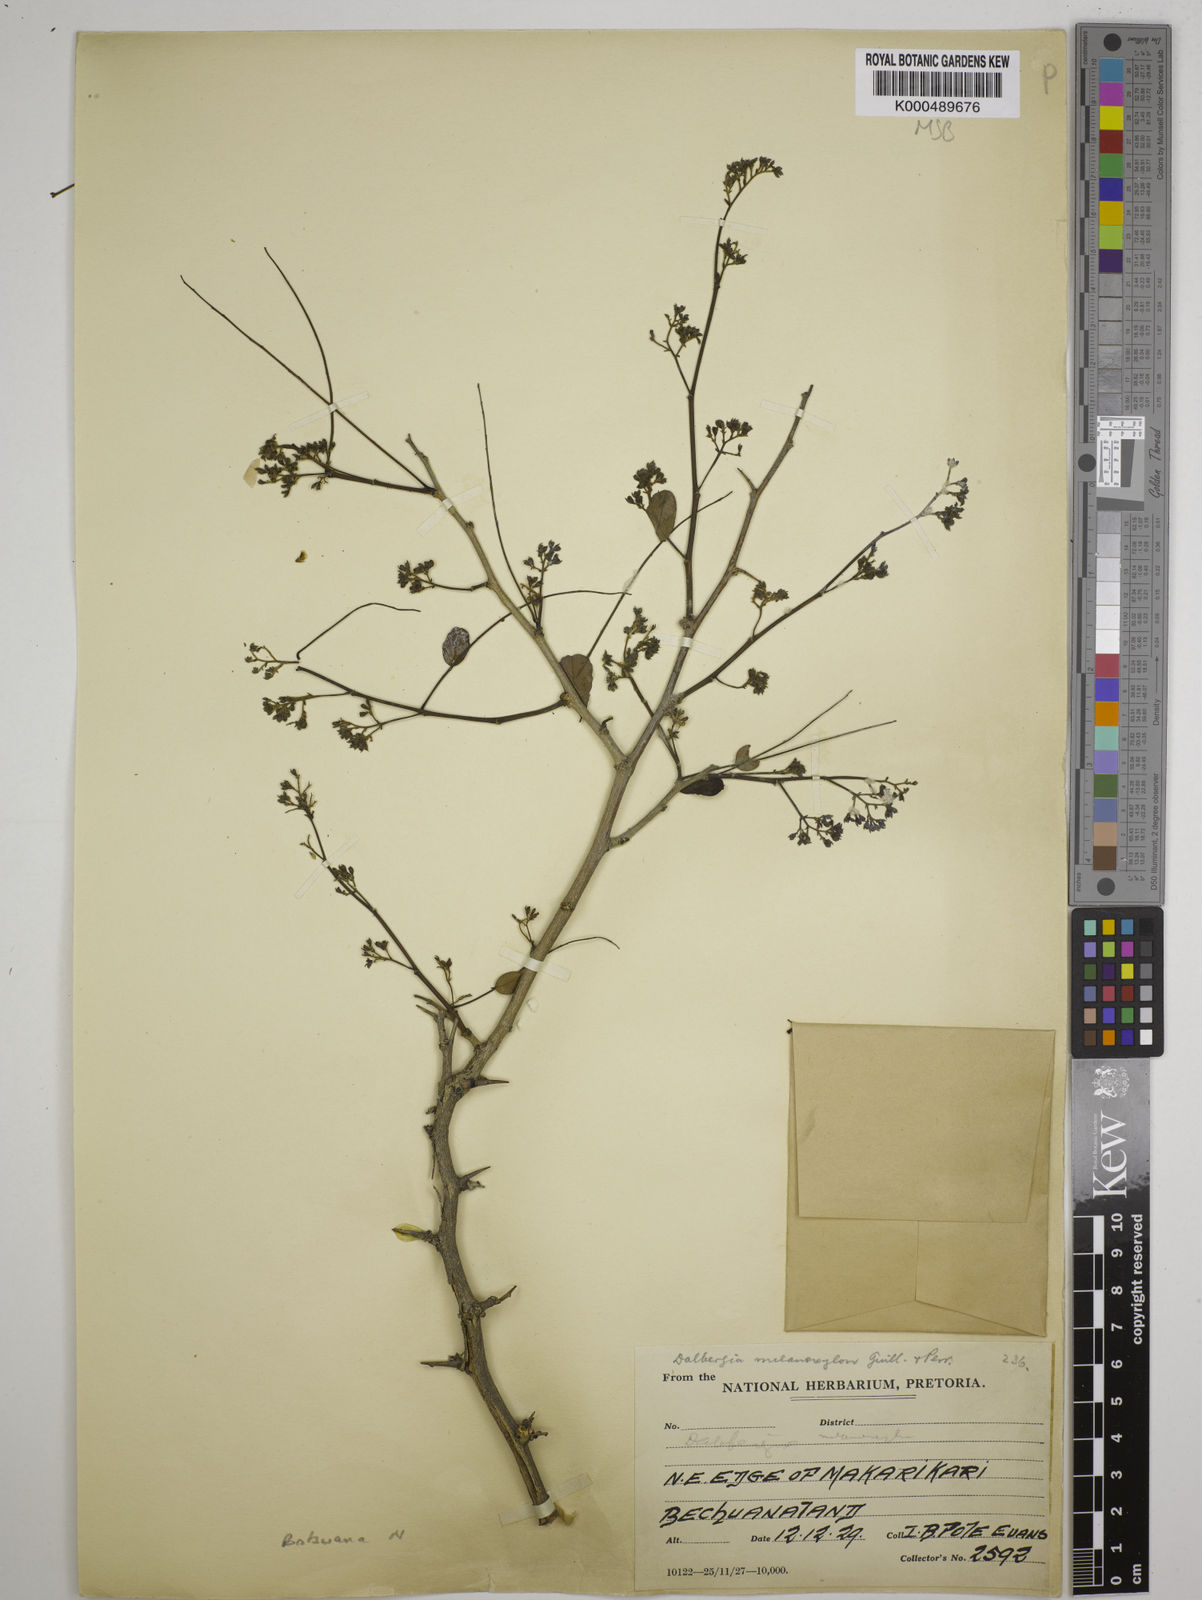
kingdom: Plantae
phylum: Tracheophyta
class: Magnoliopsida
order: Fabales
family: Fabaceae
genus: Dalbergia
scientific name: Dalbergia melanoxylon
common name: African blackwood
